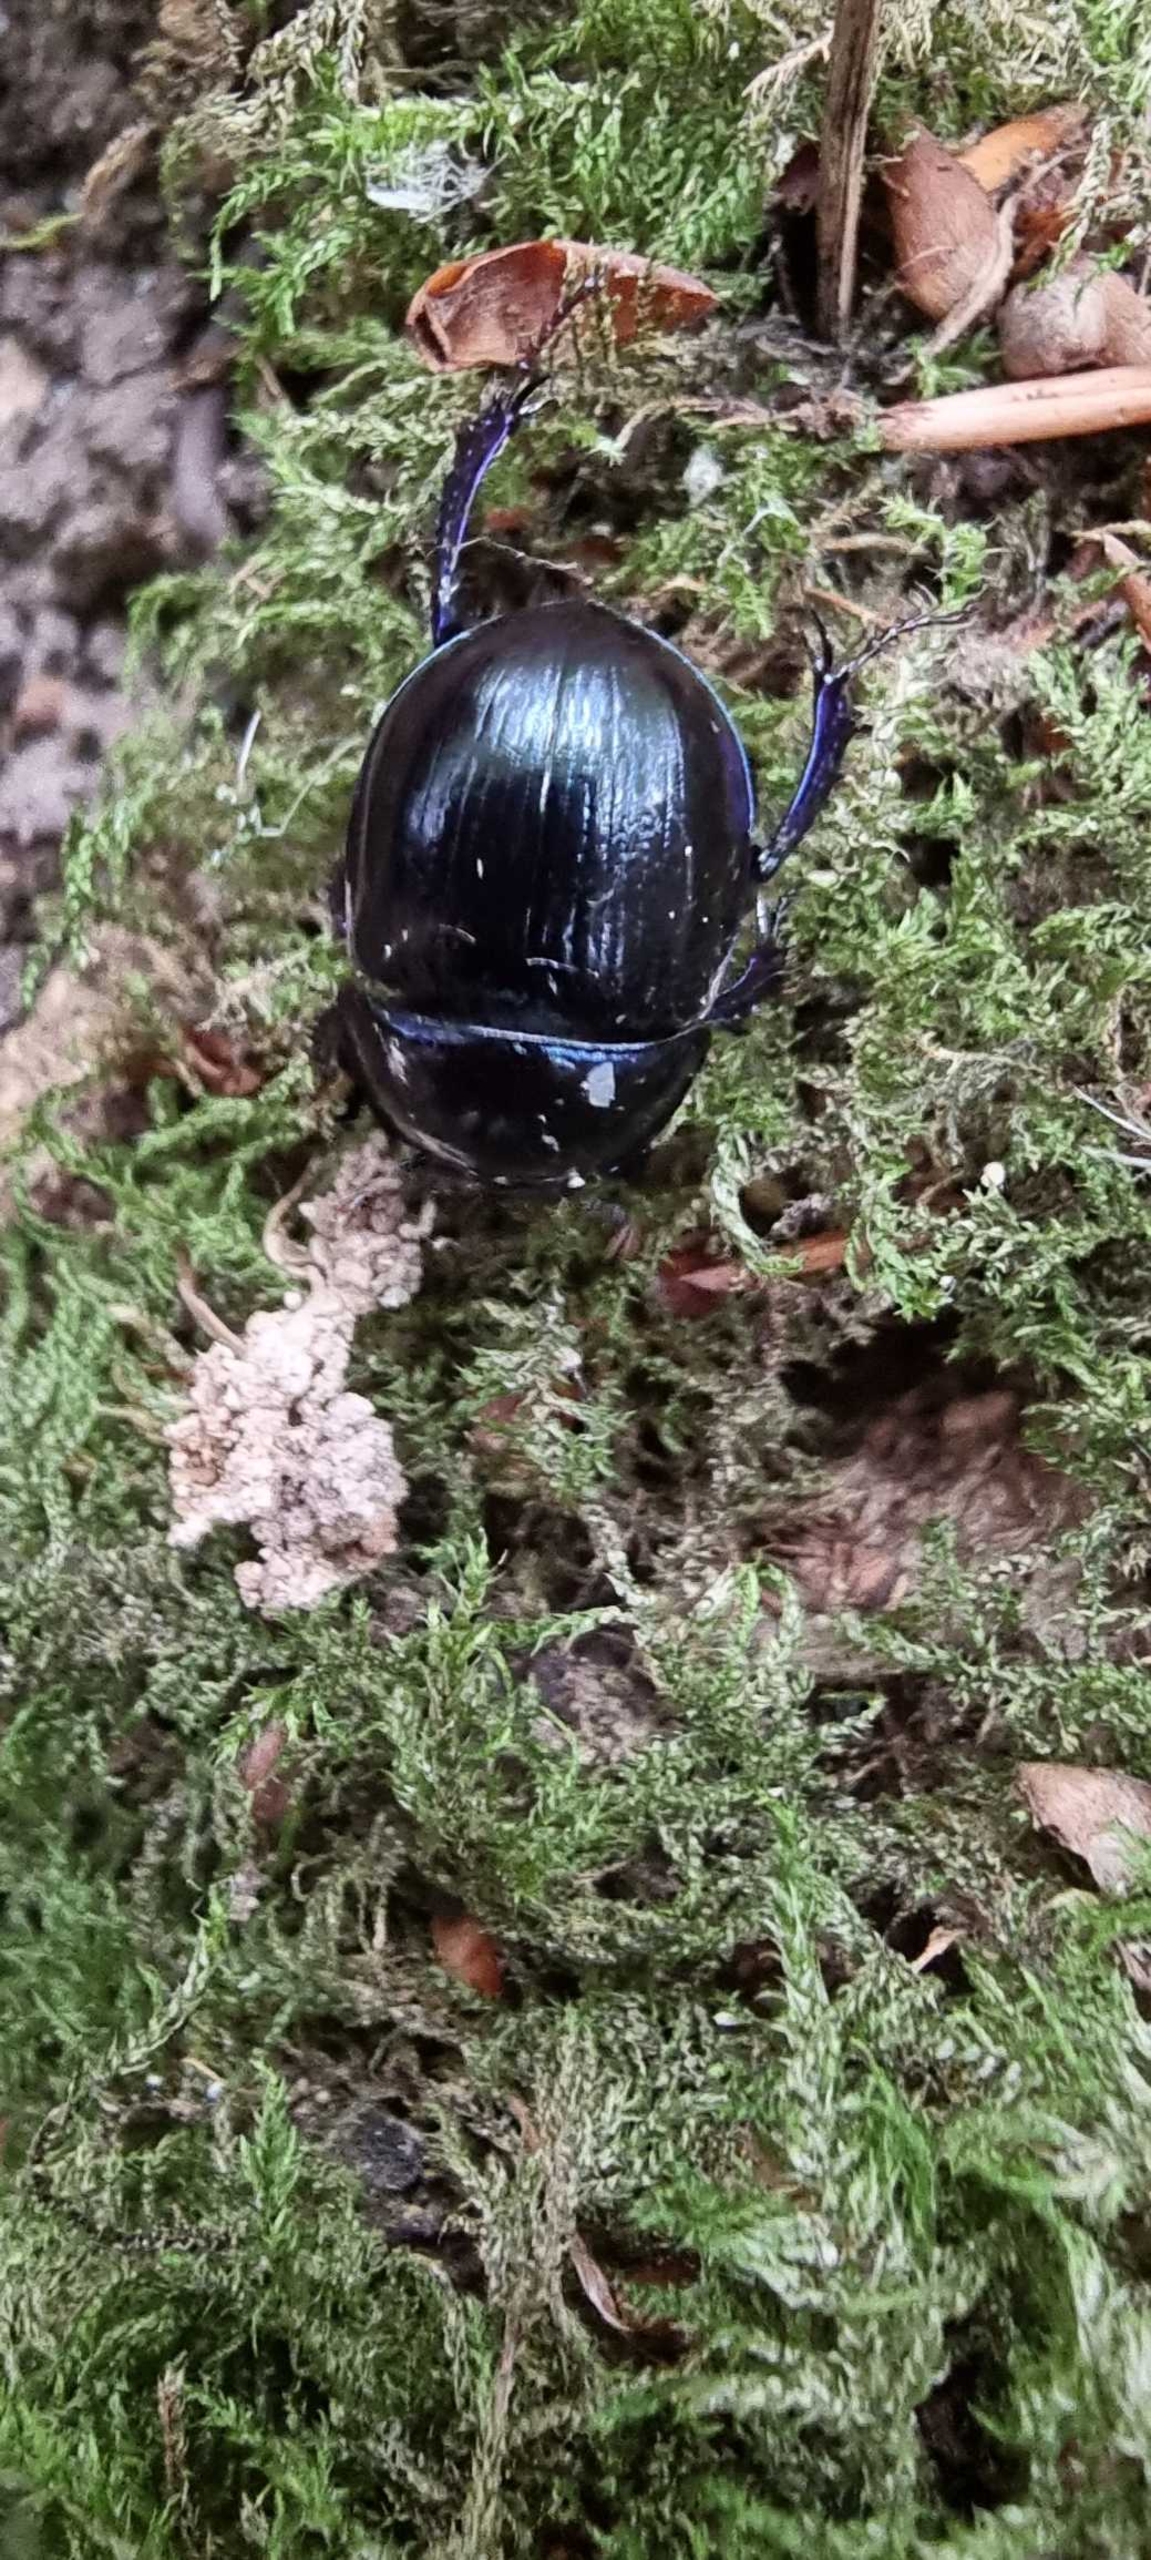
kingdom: Animalia
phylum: Arthropoda
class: Insecta
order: Coleoptera
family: Geotrupidae
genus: Anoplotrupes
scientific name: Anoplotrupes stercorosus
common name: Skovskarnbasse
